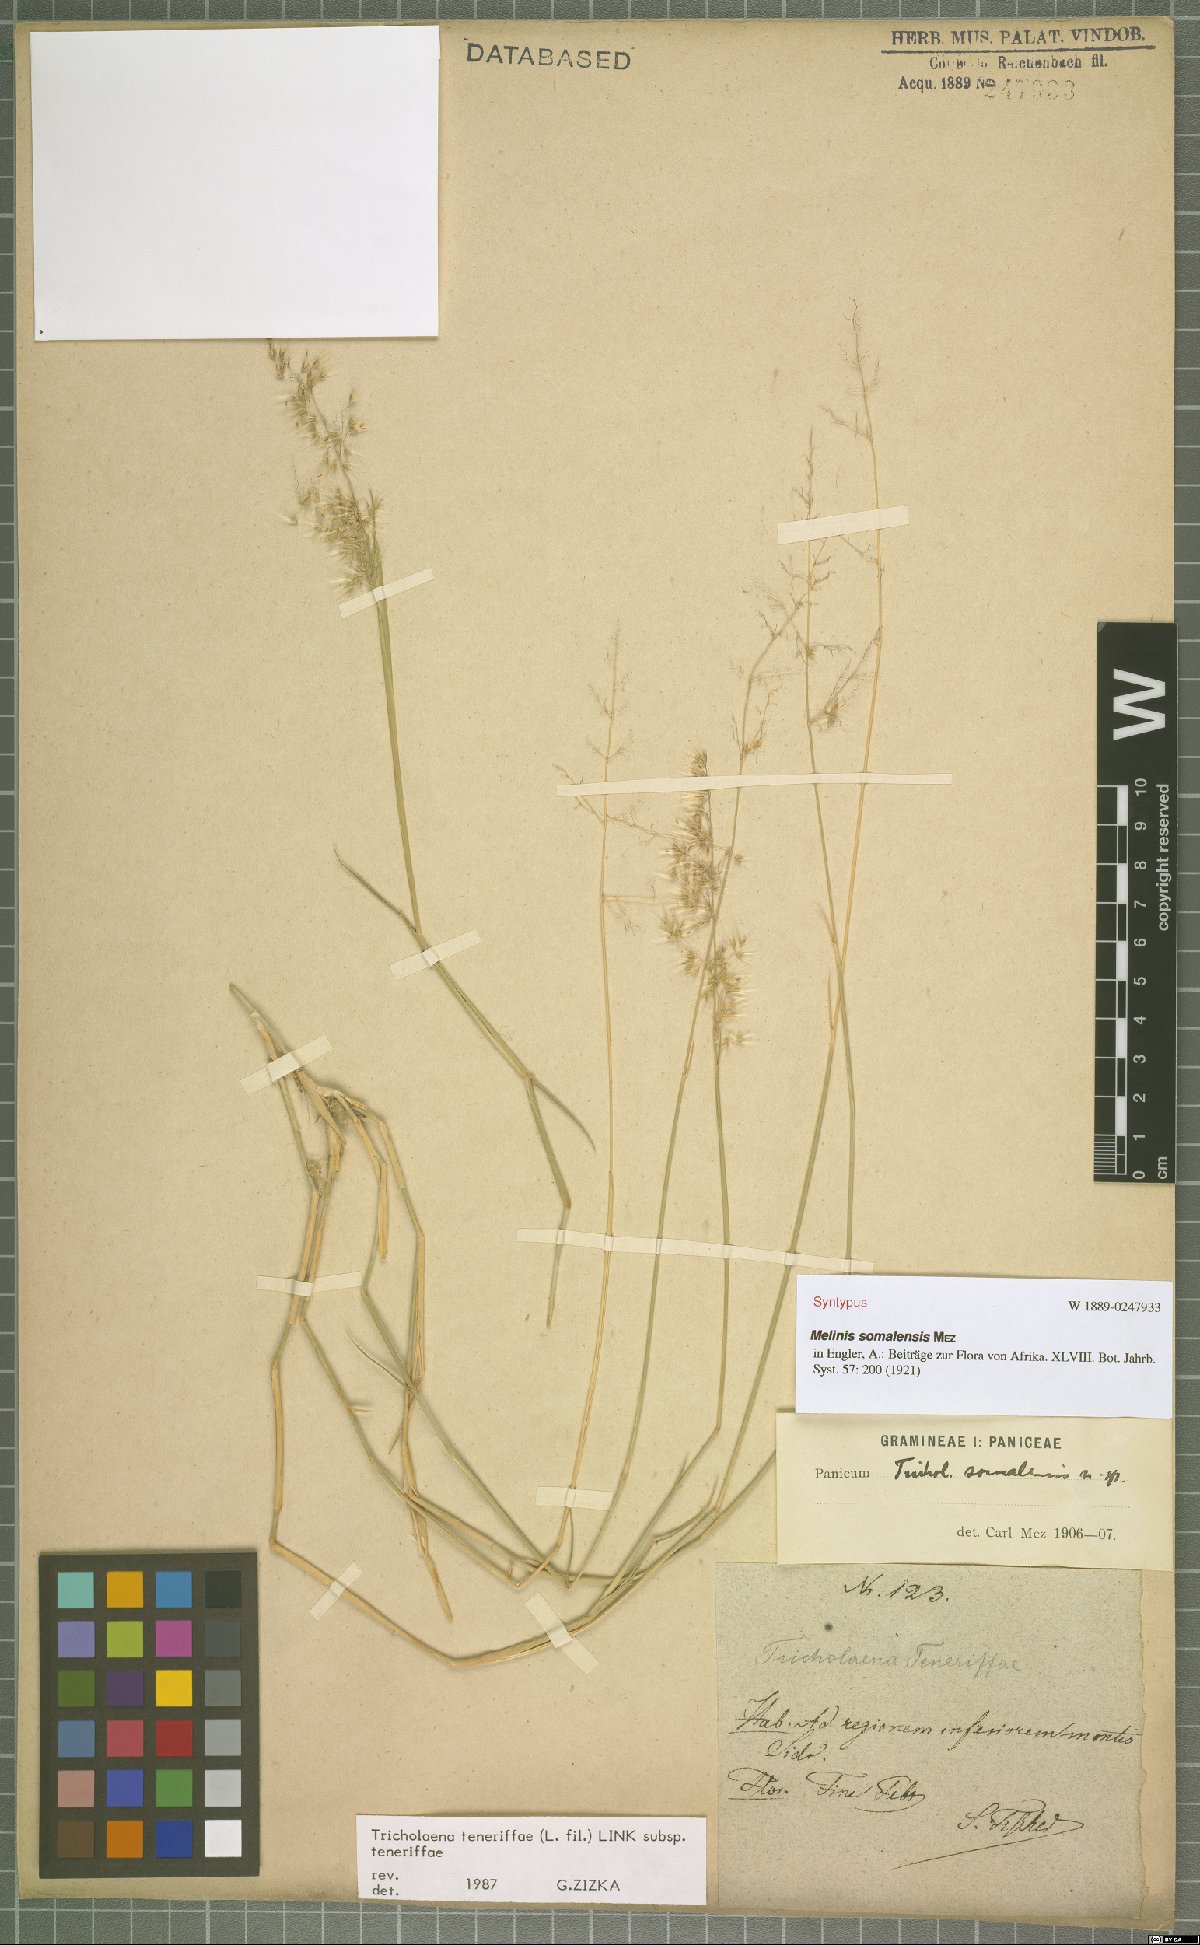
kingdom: Plantae
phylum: Tracheophyta
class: Liliopsida
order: Poales
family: Poaceae
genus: Tricholaena
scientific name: Tricholaena teneriffae
